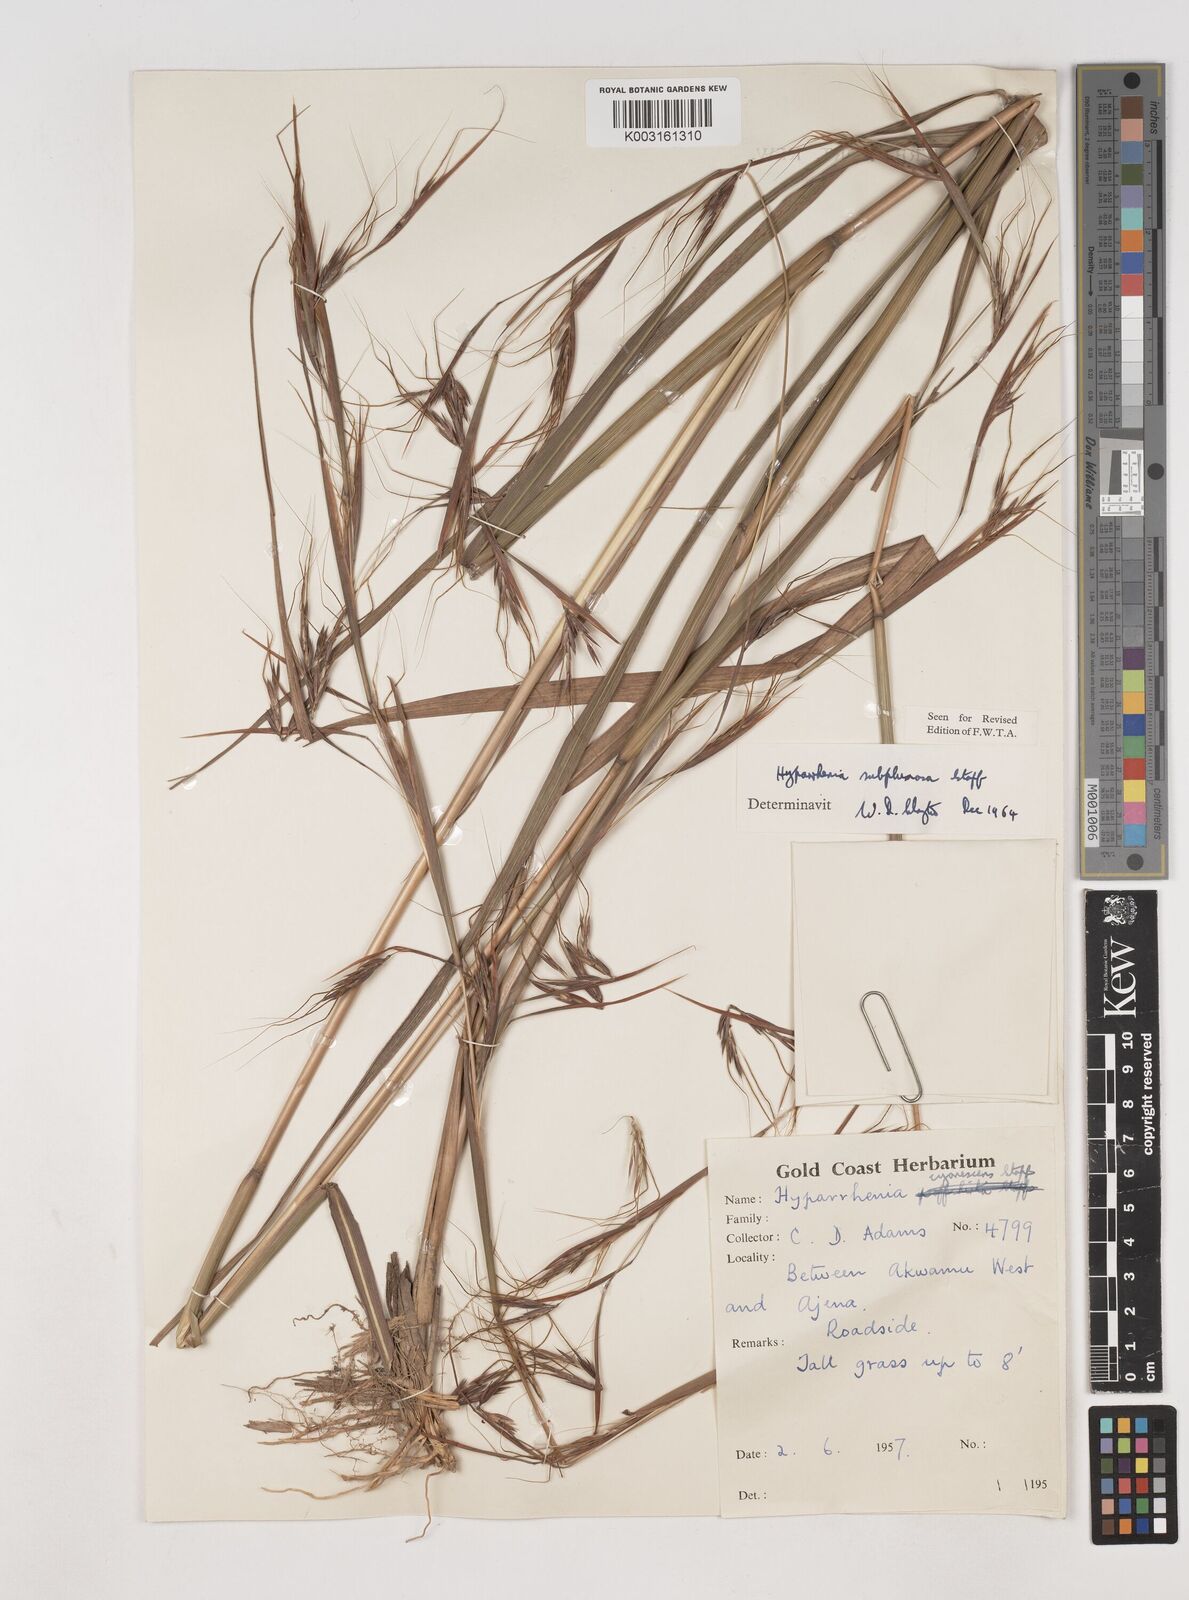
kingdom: Plantae
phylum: Tracheophyta
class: Liliopsida
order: Poales
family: Poaceae
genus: Hyparrhenia
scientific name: Hyparrhenia
